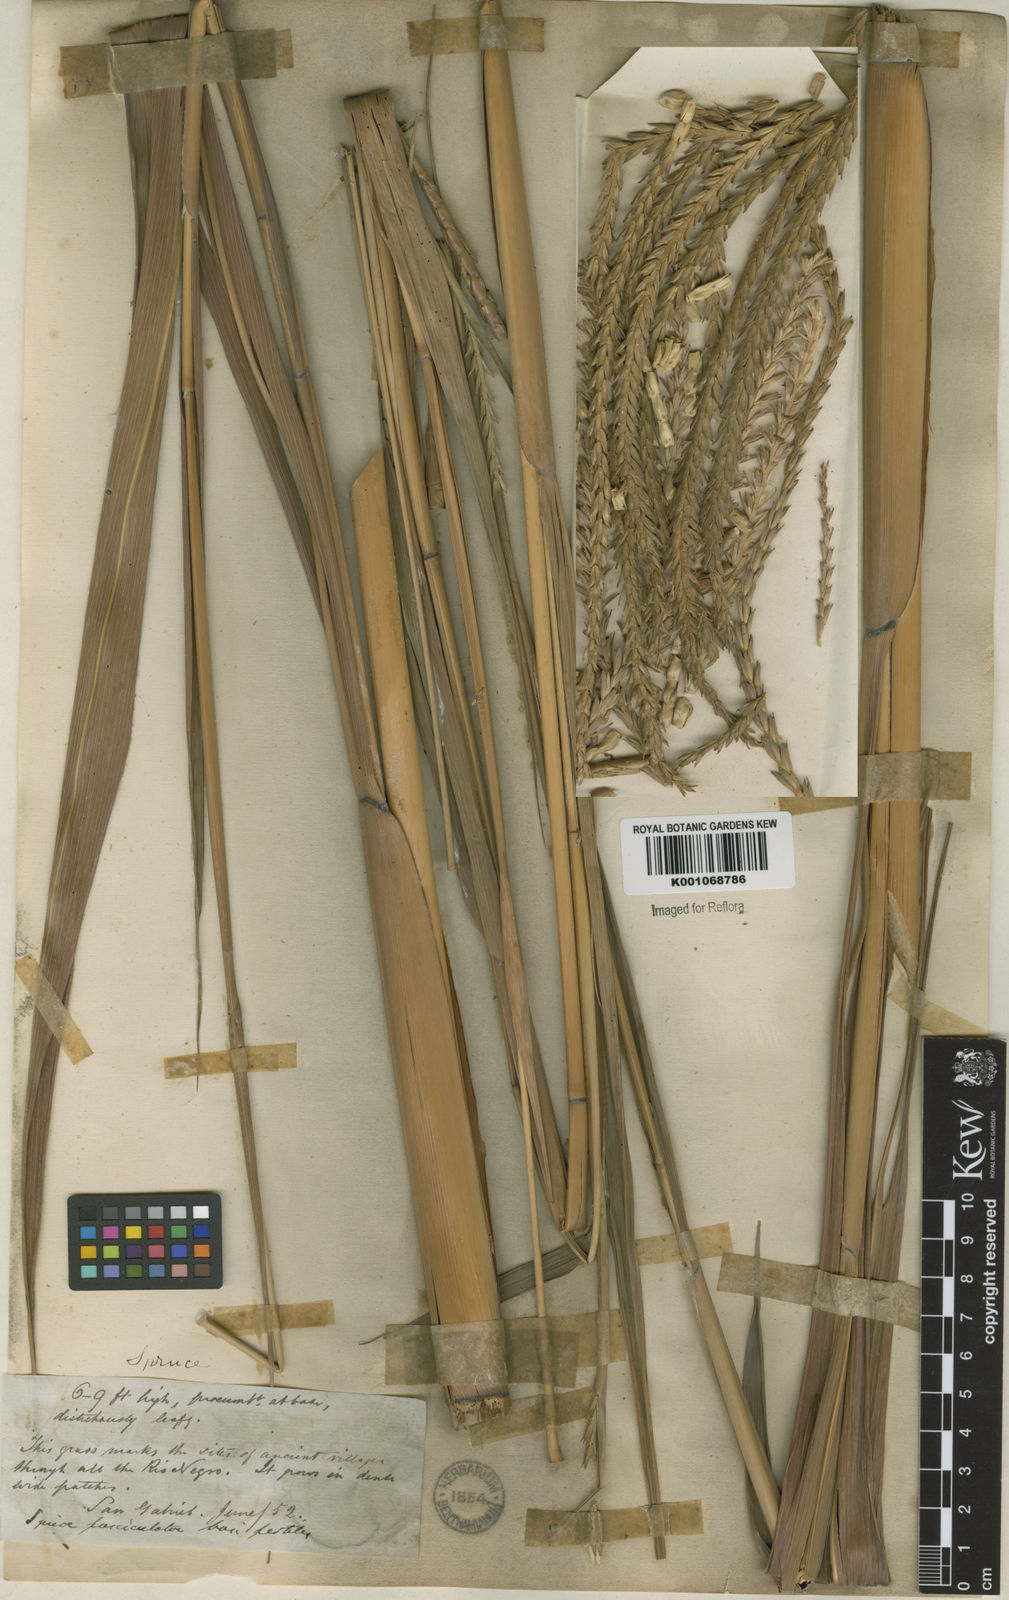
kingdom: Plantae
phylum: Tracheophyta
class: Liliopsida
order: Poales
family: Poaceae
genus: Tripsacum
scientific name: Tripsacum australe
